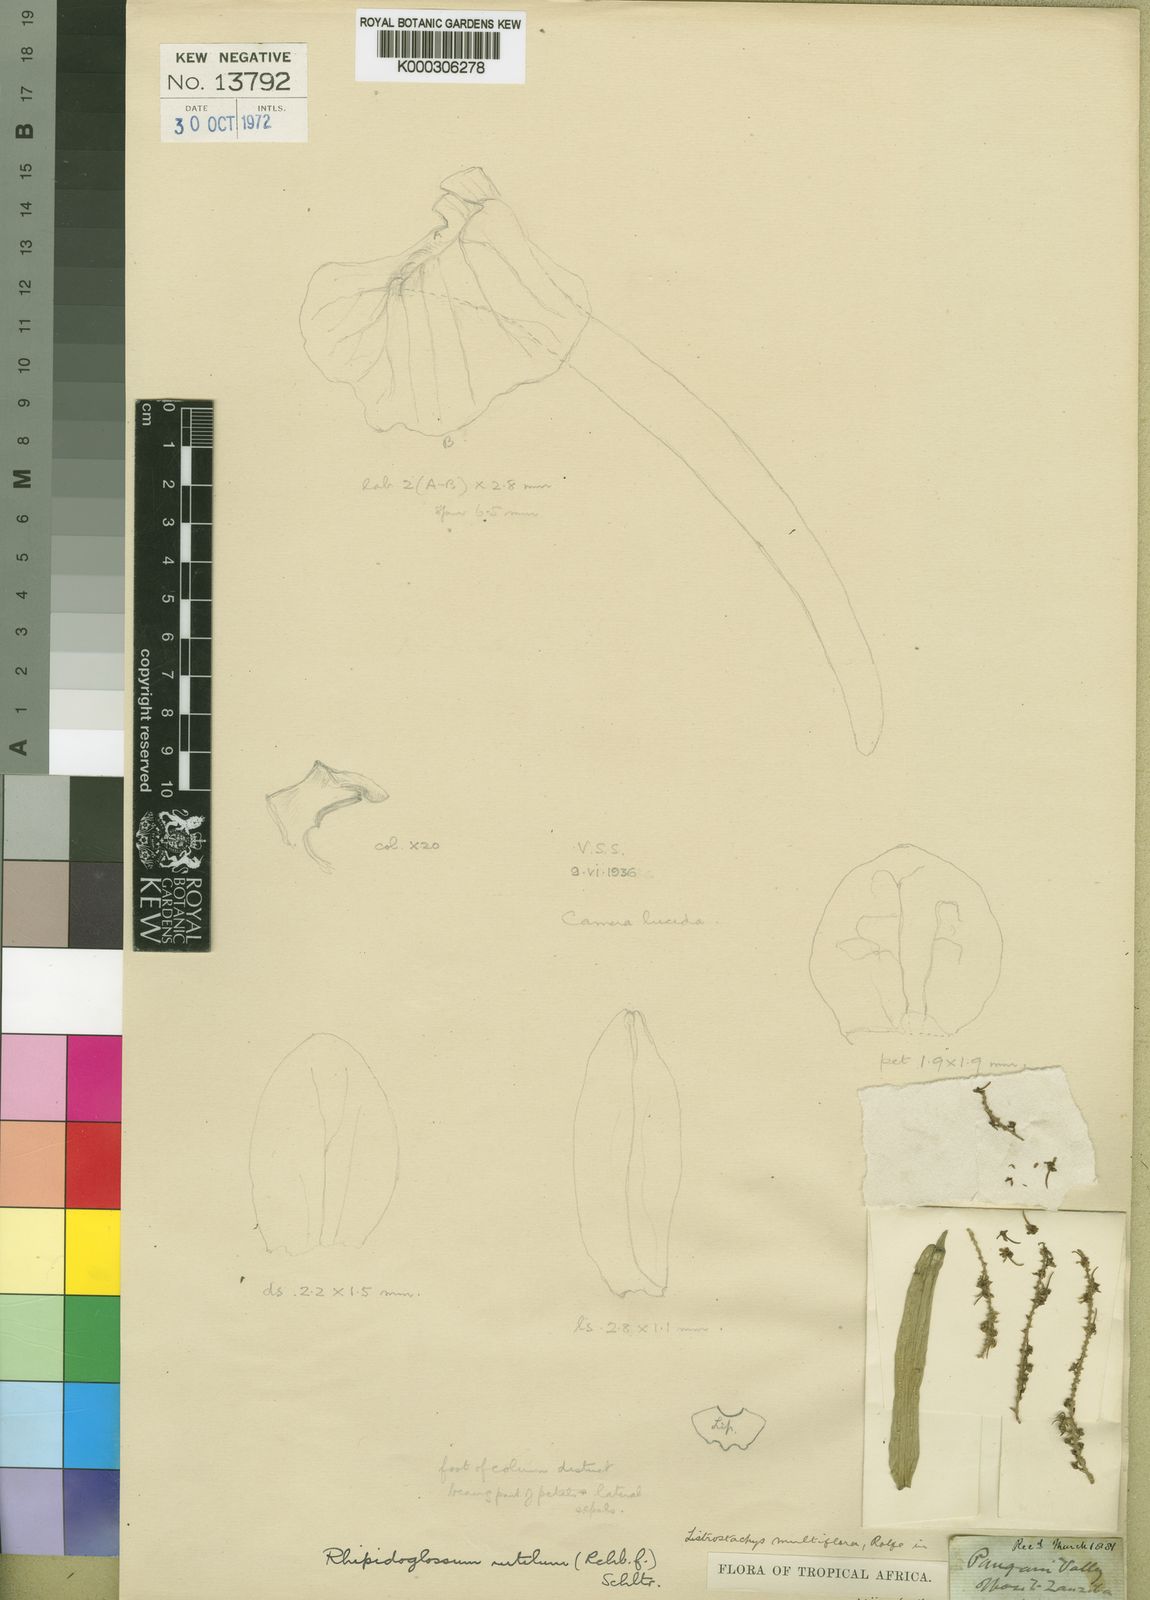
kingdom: Plantae
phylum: Tracheophyta
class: Liliopsida
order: Asparagales
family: Orchidaceae
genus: Rhipidoglossum
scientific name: Rhipidoglossum rutilum
